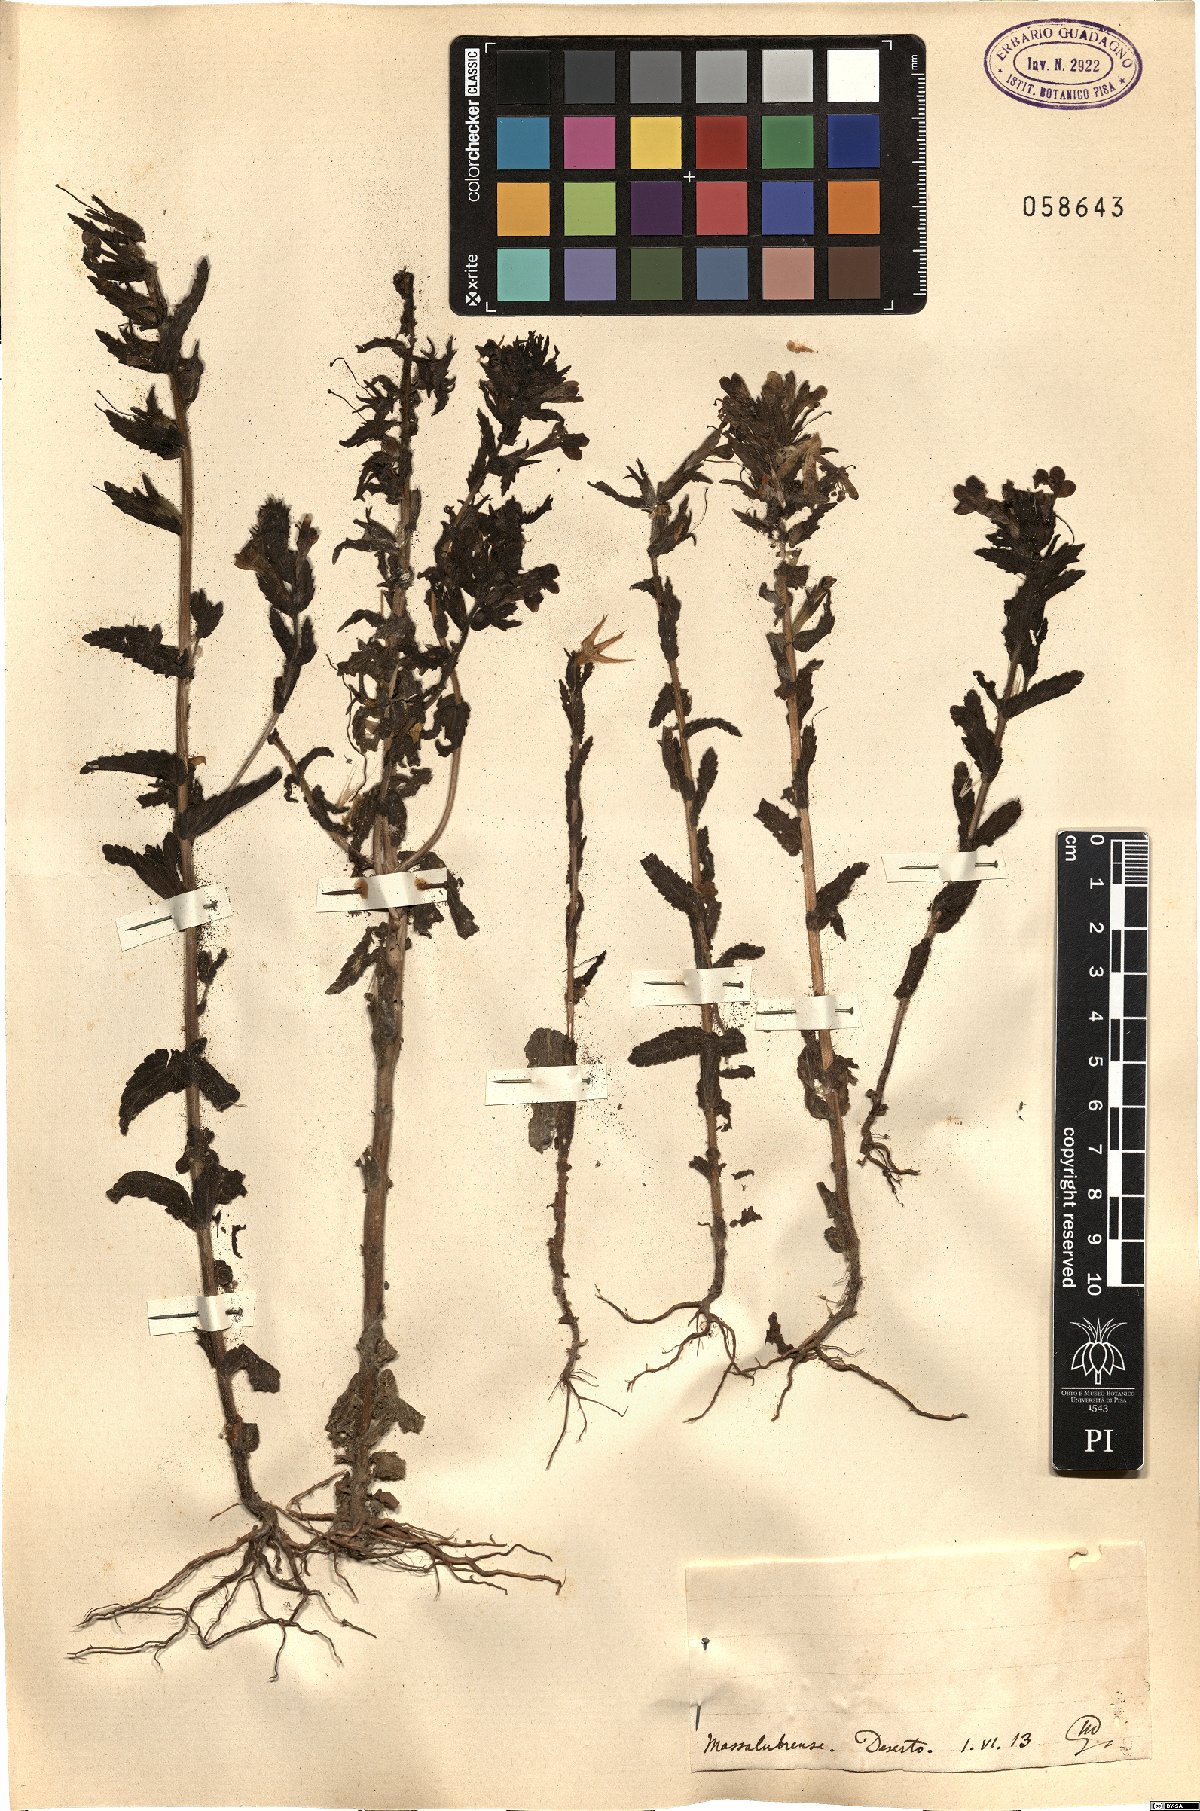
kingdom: Plantae
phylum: Tracheophyta
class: Magnoliopsida
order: Lamiales
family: Orobanchaceae
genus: Bartsia
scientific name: Bartsia
